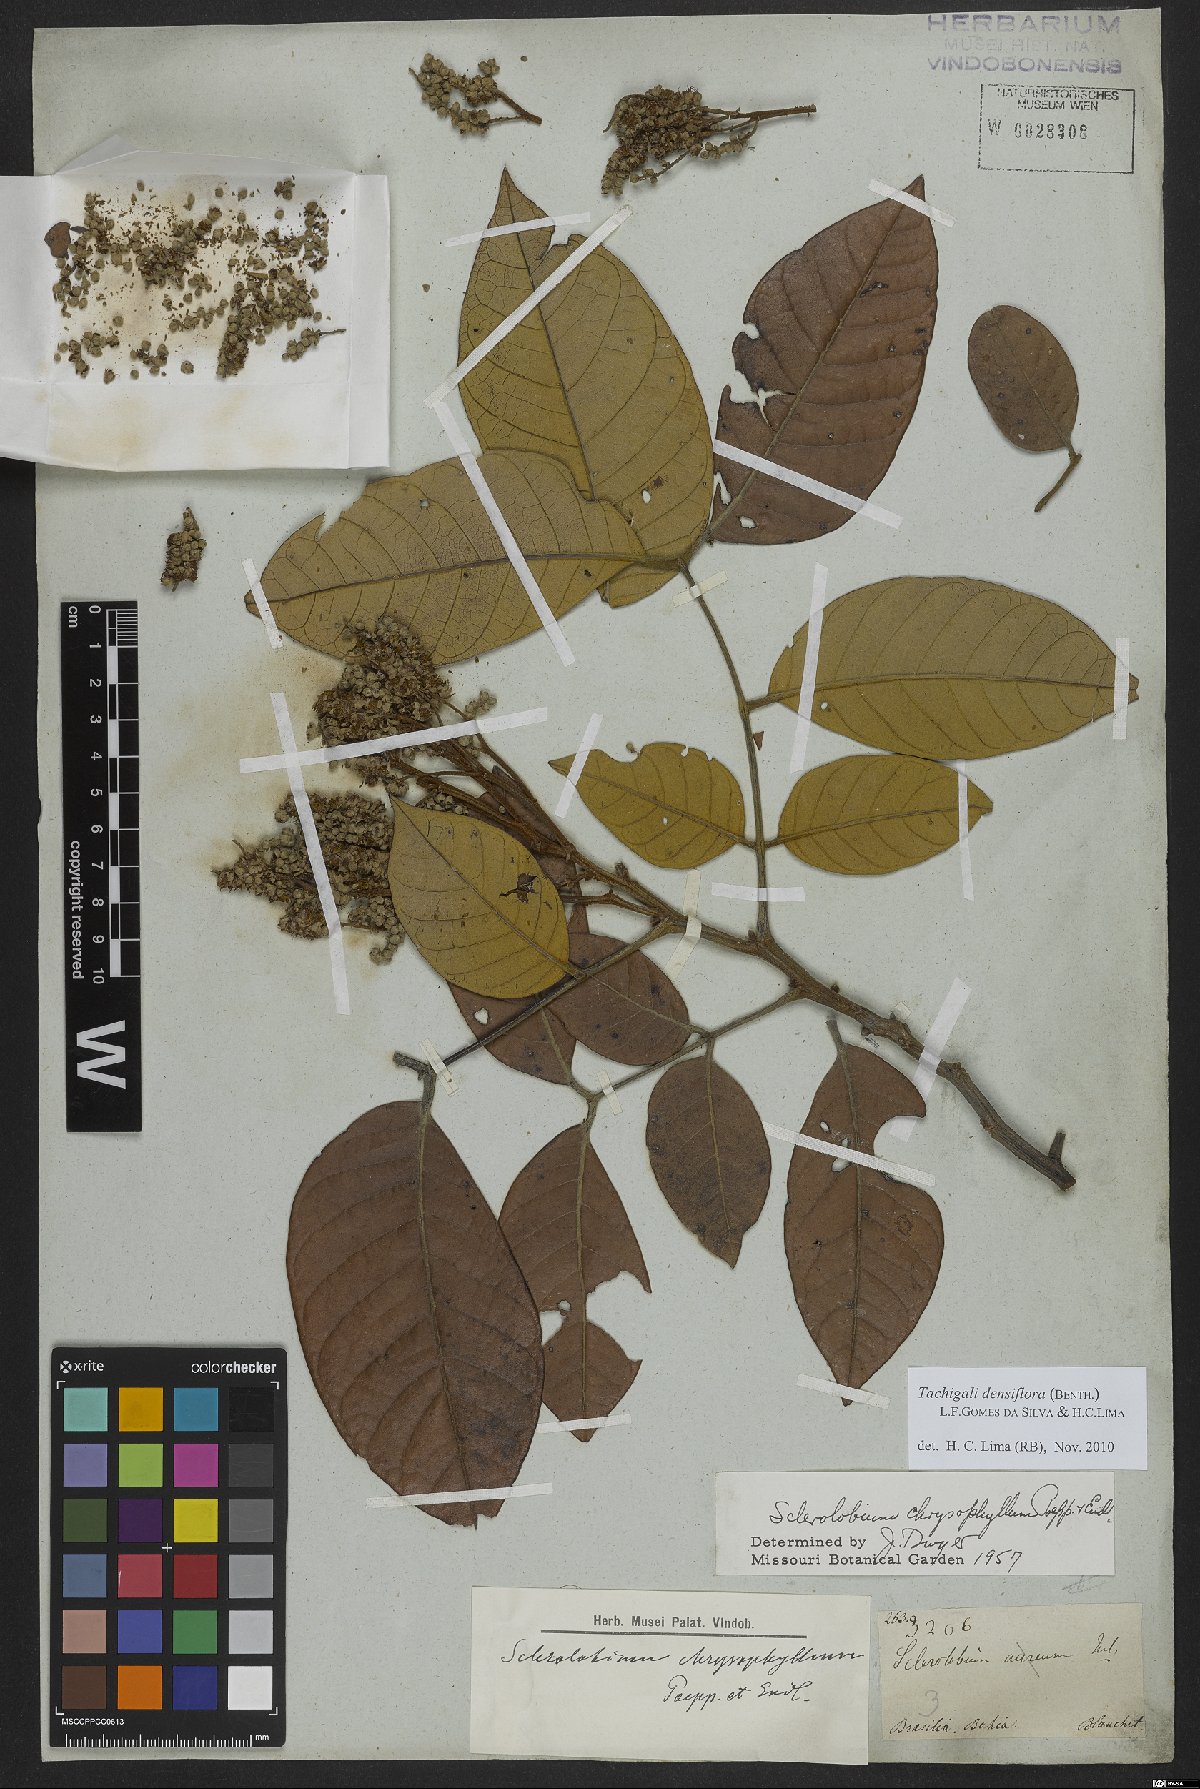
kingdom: Plantae
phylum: Tracheophyta
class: Magnoliopsida
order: Fabales
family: Fabaceae
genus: Tachigali
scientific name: Tachigali densiflora
